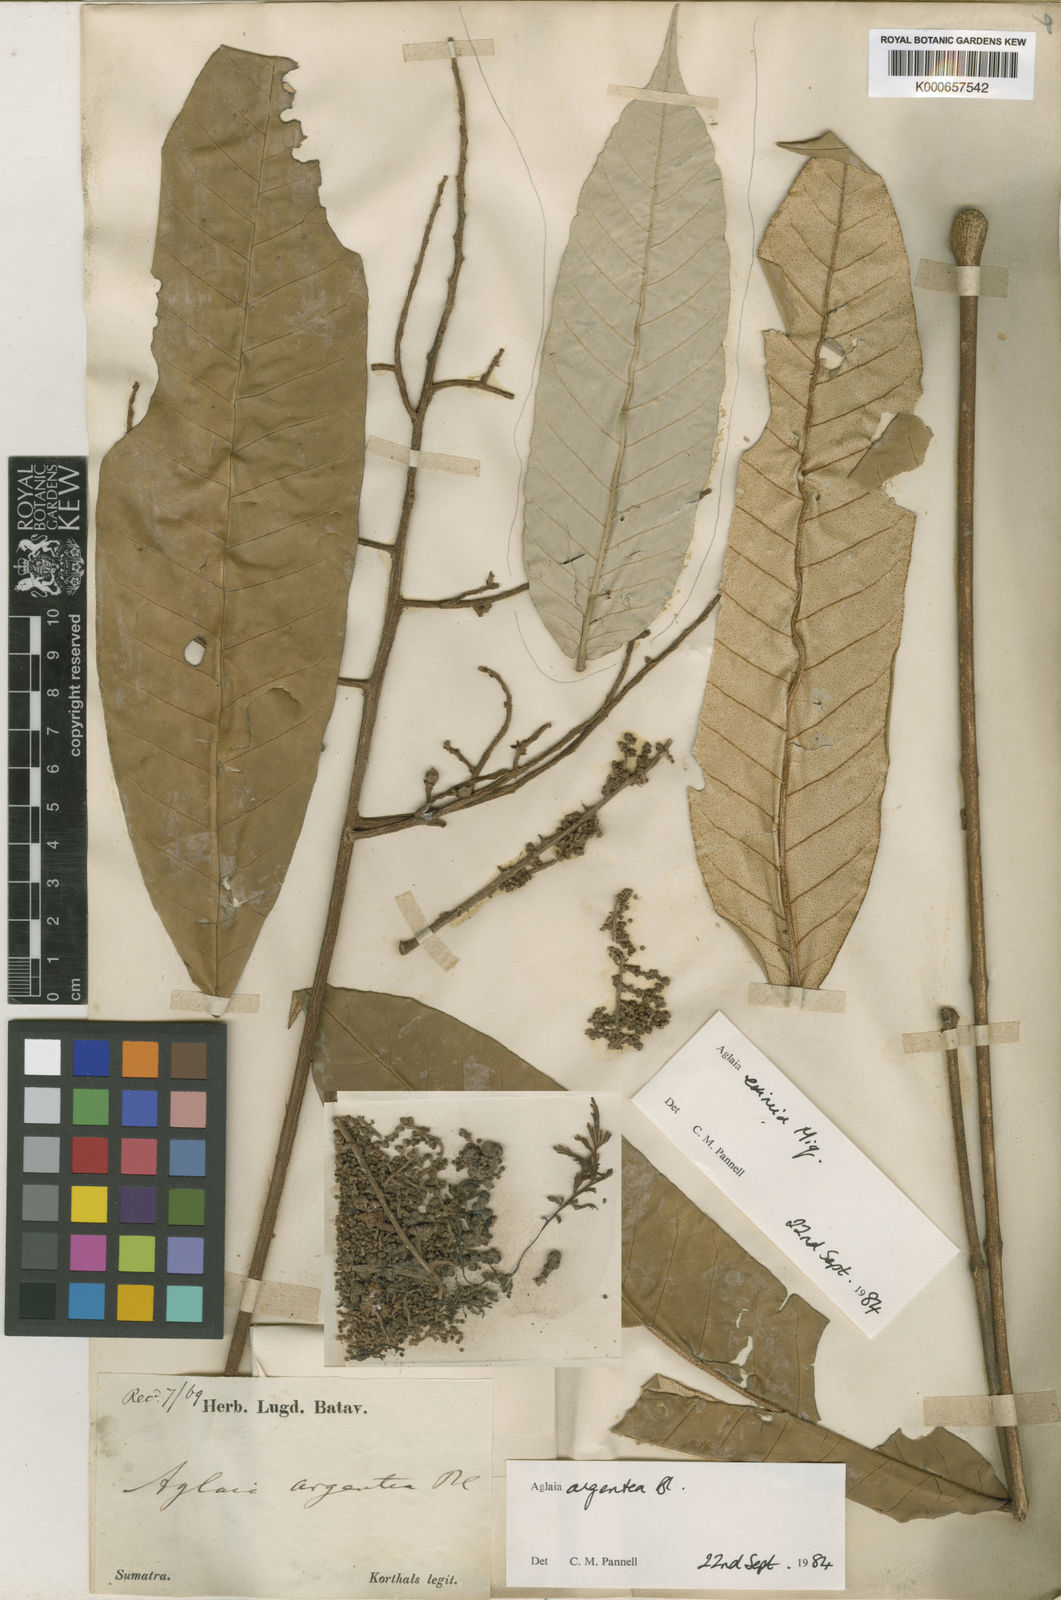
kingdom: Plantae
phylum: Tracheophyta
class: Magnoliopsida
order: Sapindales
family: Meliaceae
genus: Aglaia
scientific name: Aglaia argentea
